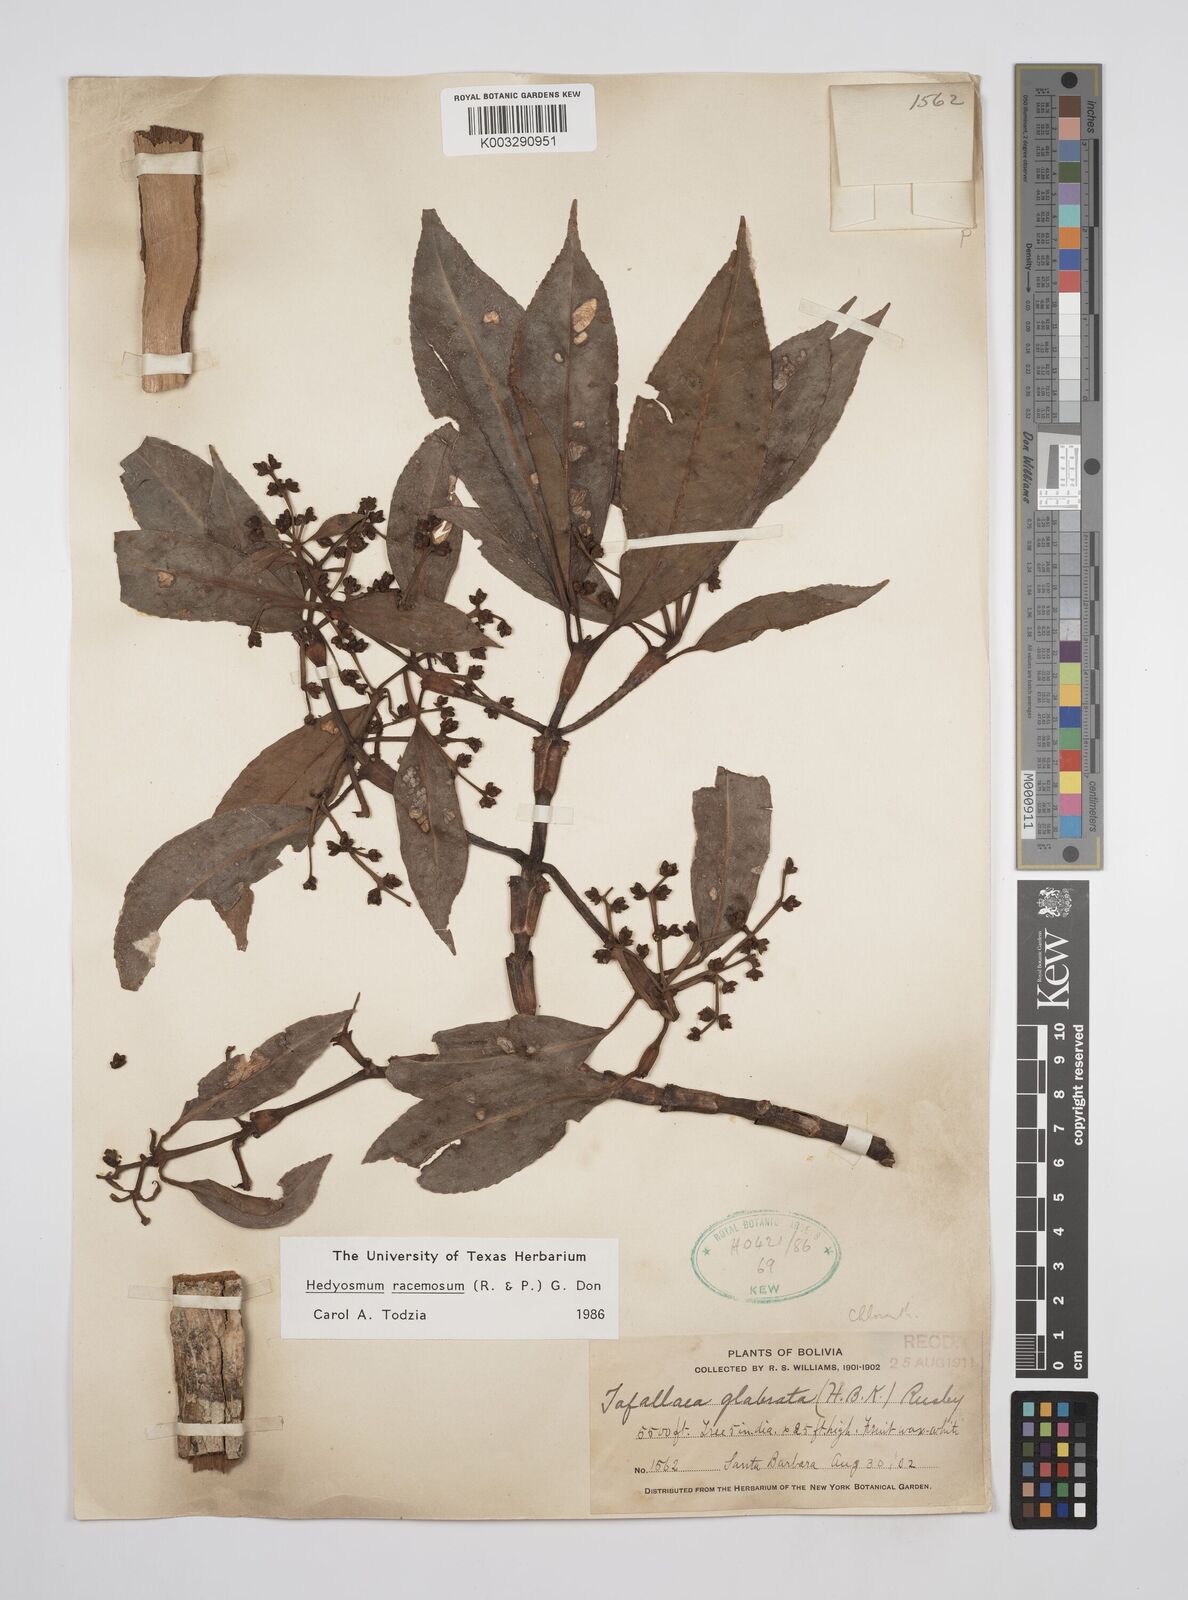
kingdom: Plantae
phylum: Tracheophyta
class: Magnoliopsida
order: Chloranthales
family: Chloranthaceae
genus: Hedyosmum
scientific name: Hedyosmum racemosum
